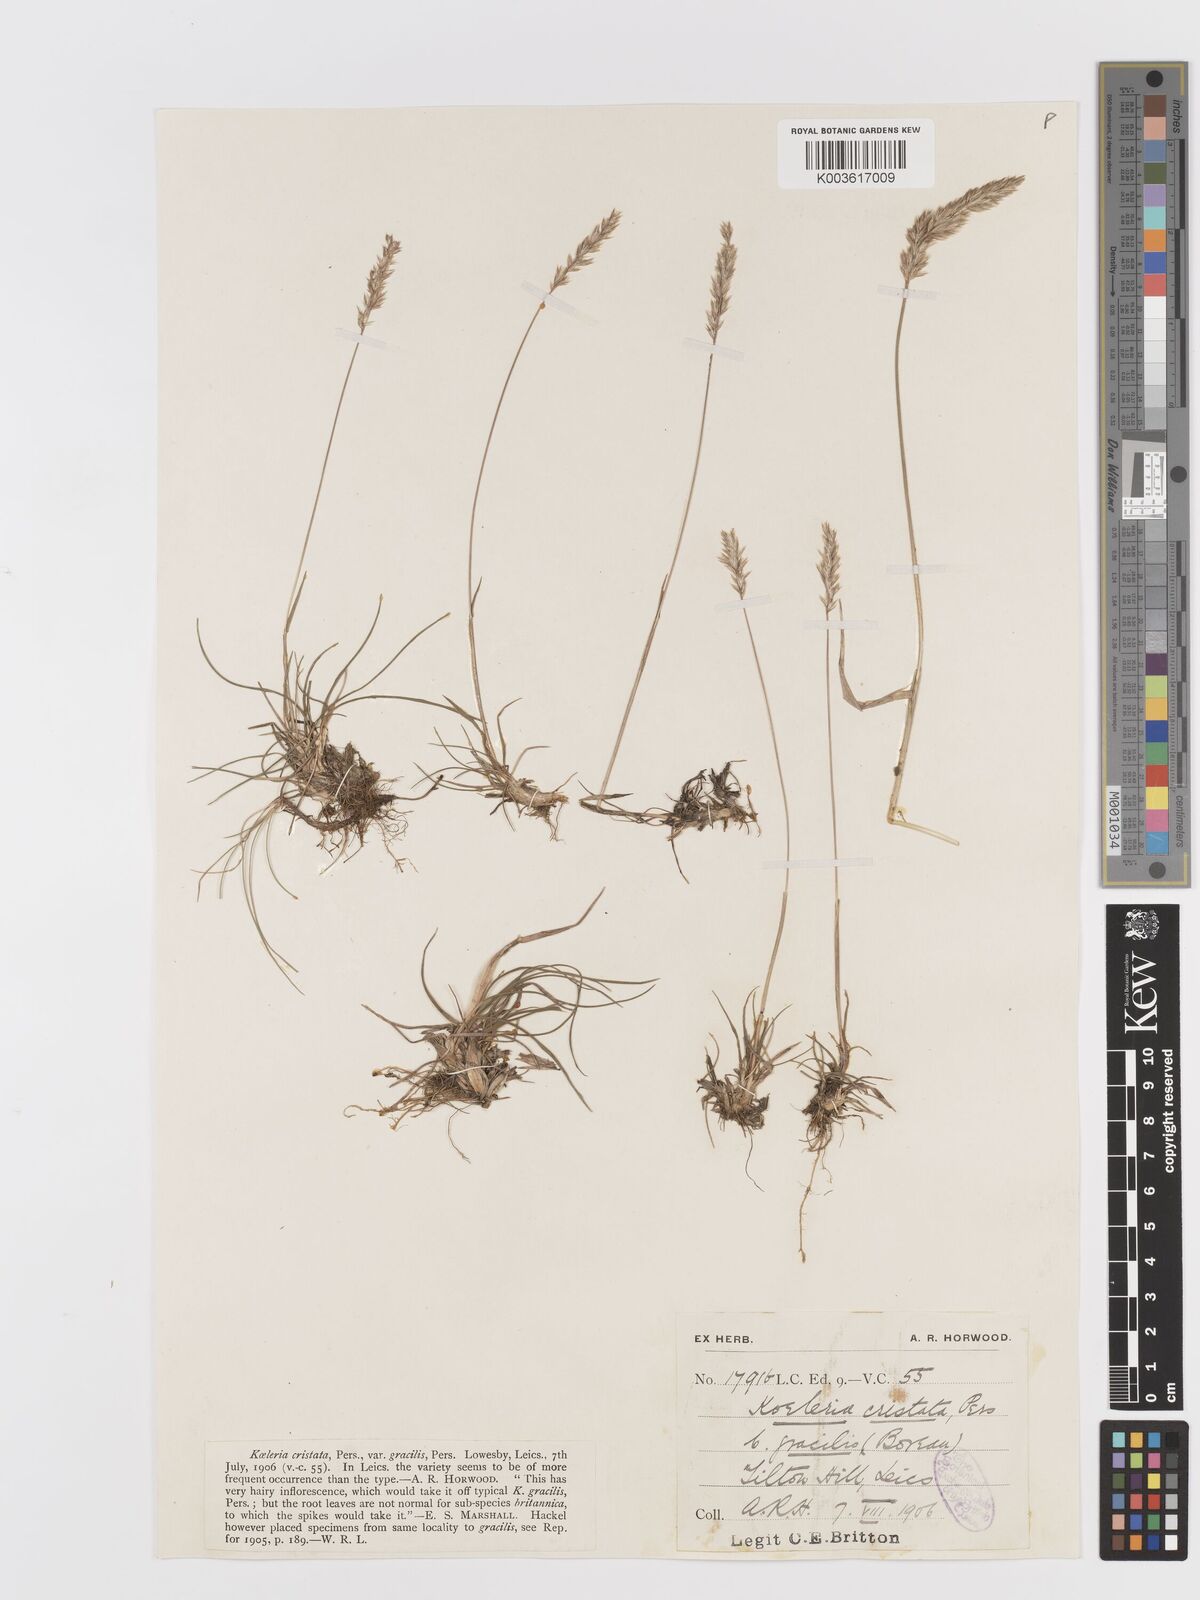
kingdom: Plantae
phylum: Tracheophyta
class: Liliopsida
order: Poales
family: Poaceae
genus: Koeleria
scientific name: Koeleria macrantha
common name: Crested hair-grass
